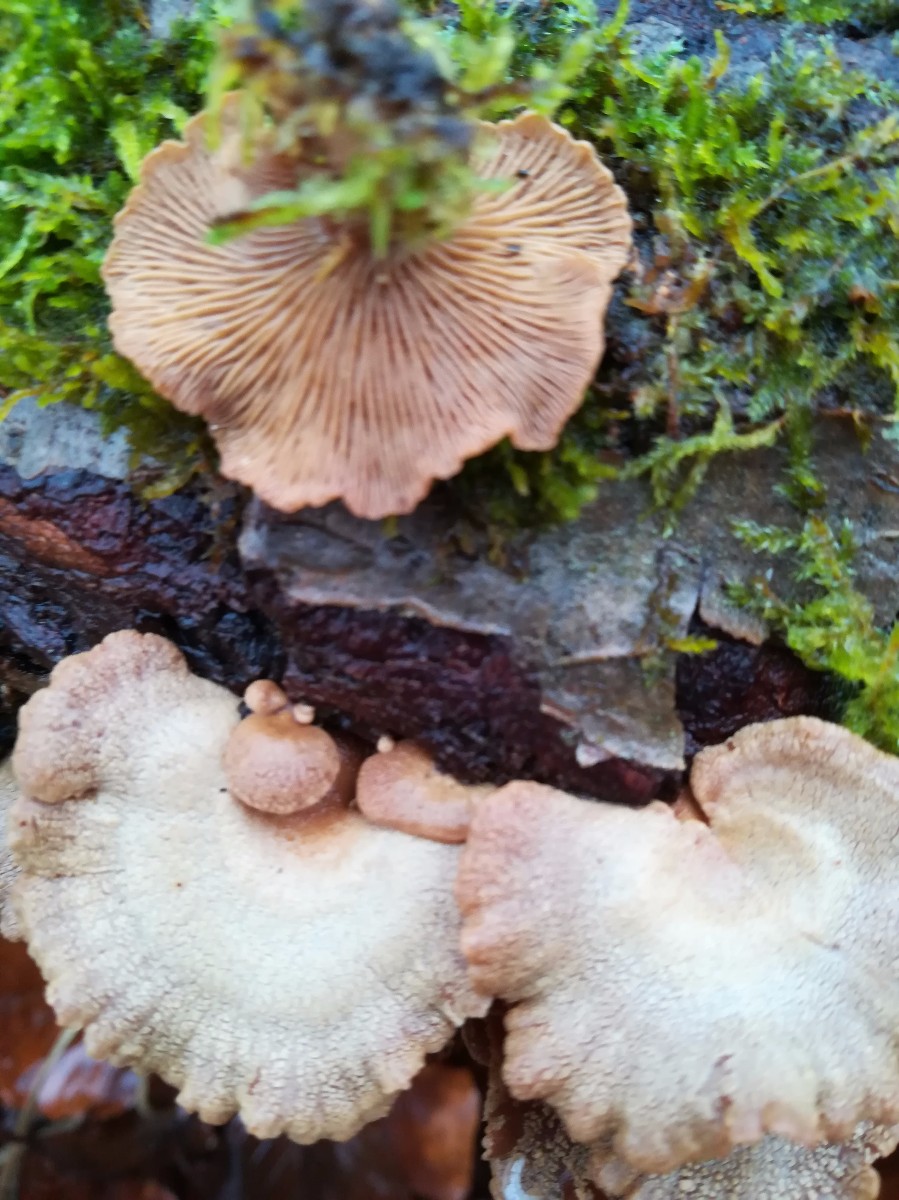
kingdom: Fungi
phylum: Basidiomycota
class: Agaricomycetes
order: Agaricales
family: Mycenaceae
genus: Panellus
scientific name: Panellus stipticus
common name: kliddet epaulethat
